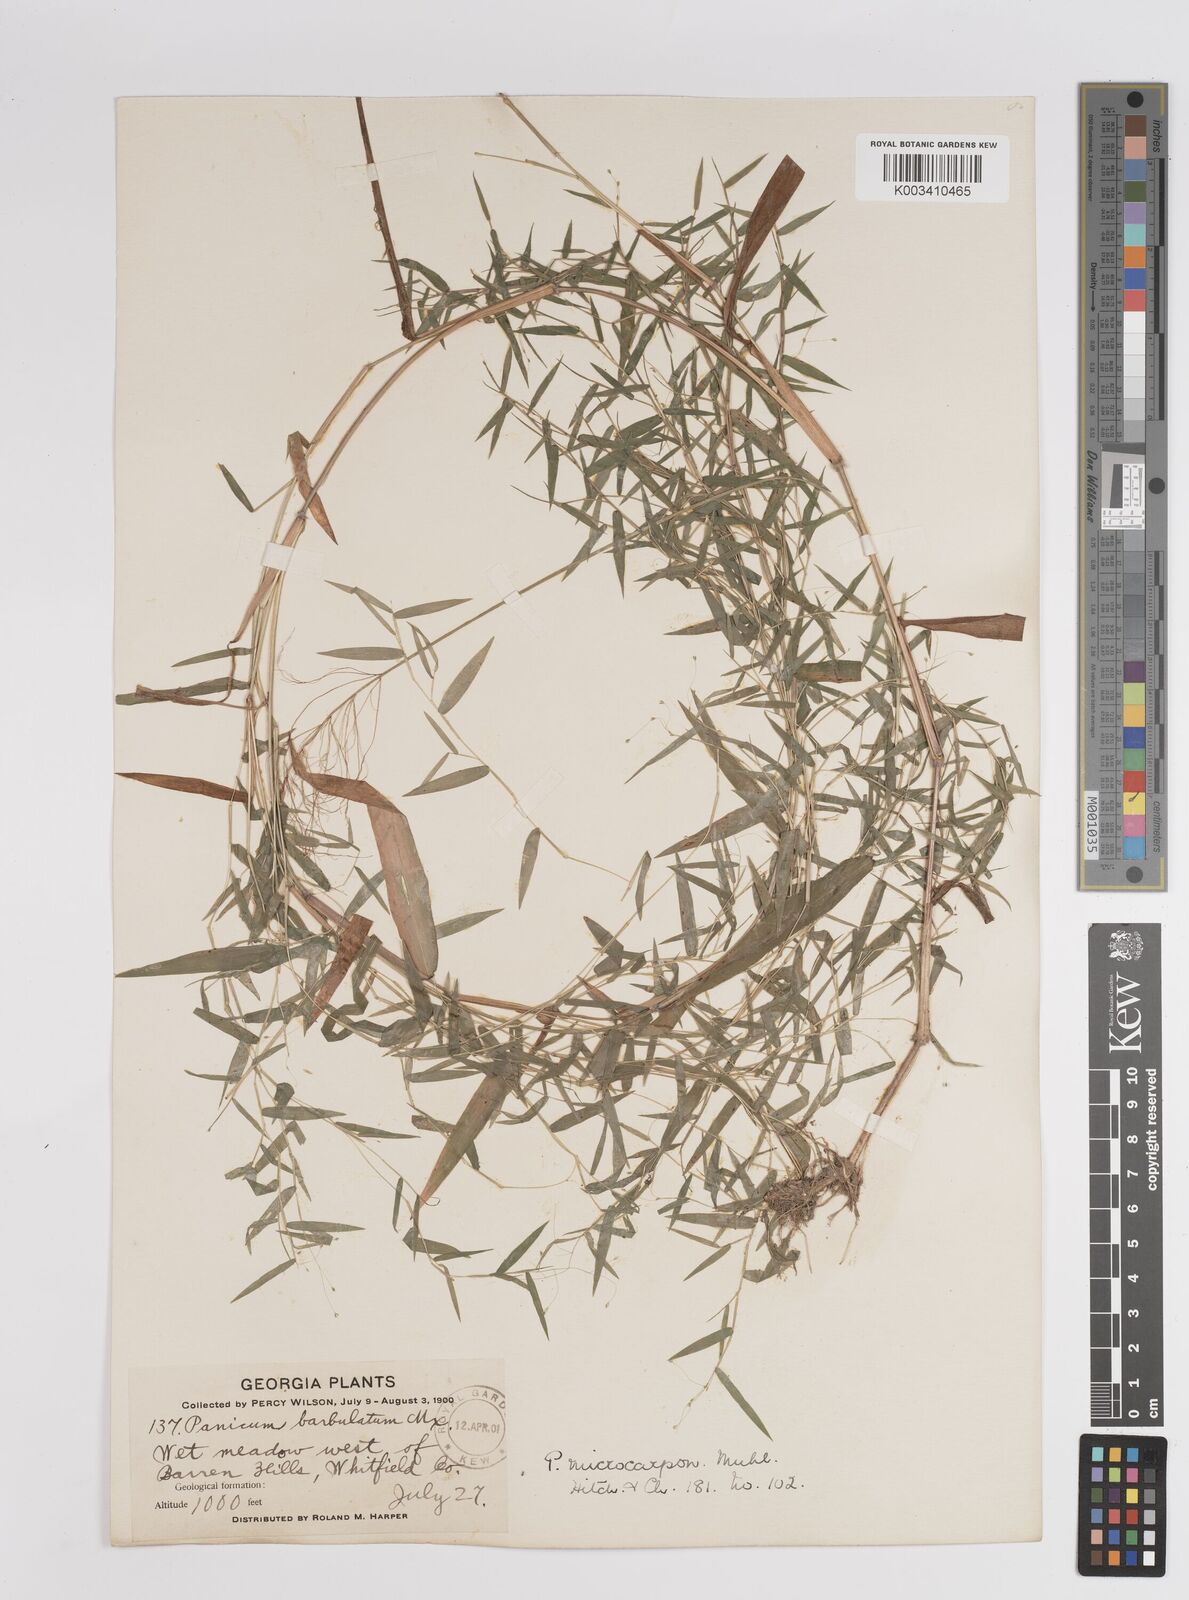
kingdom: Plantae
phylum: Tracheophyta
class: Liliopsida
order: Poales
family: Poaceae
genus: Dichanthelium
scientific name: Dichanthelium polyanthes
